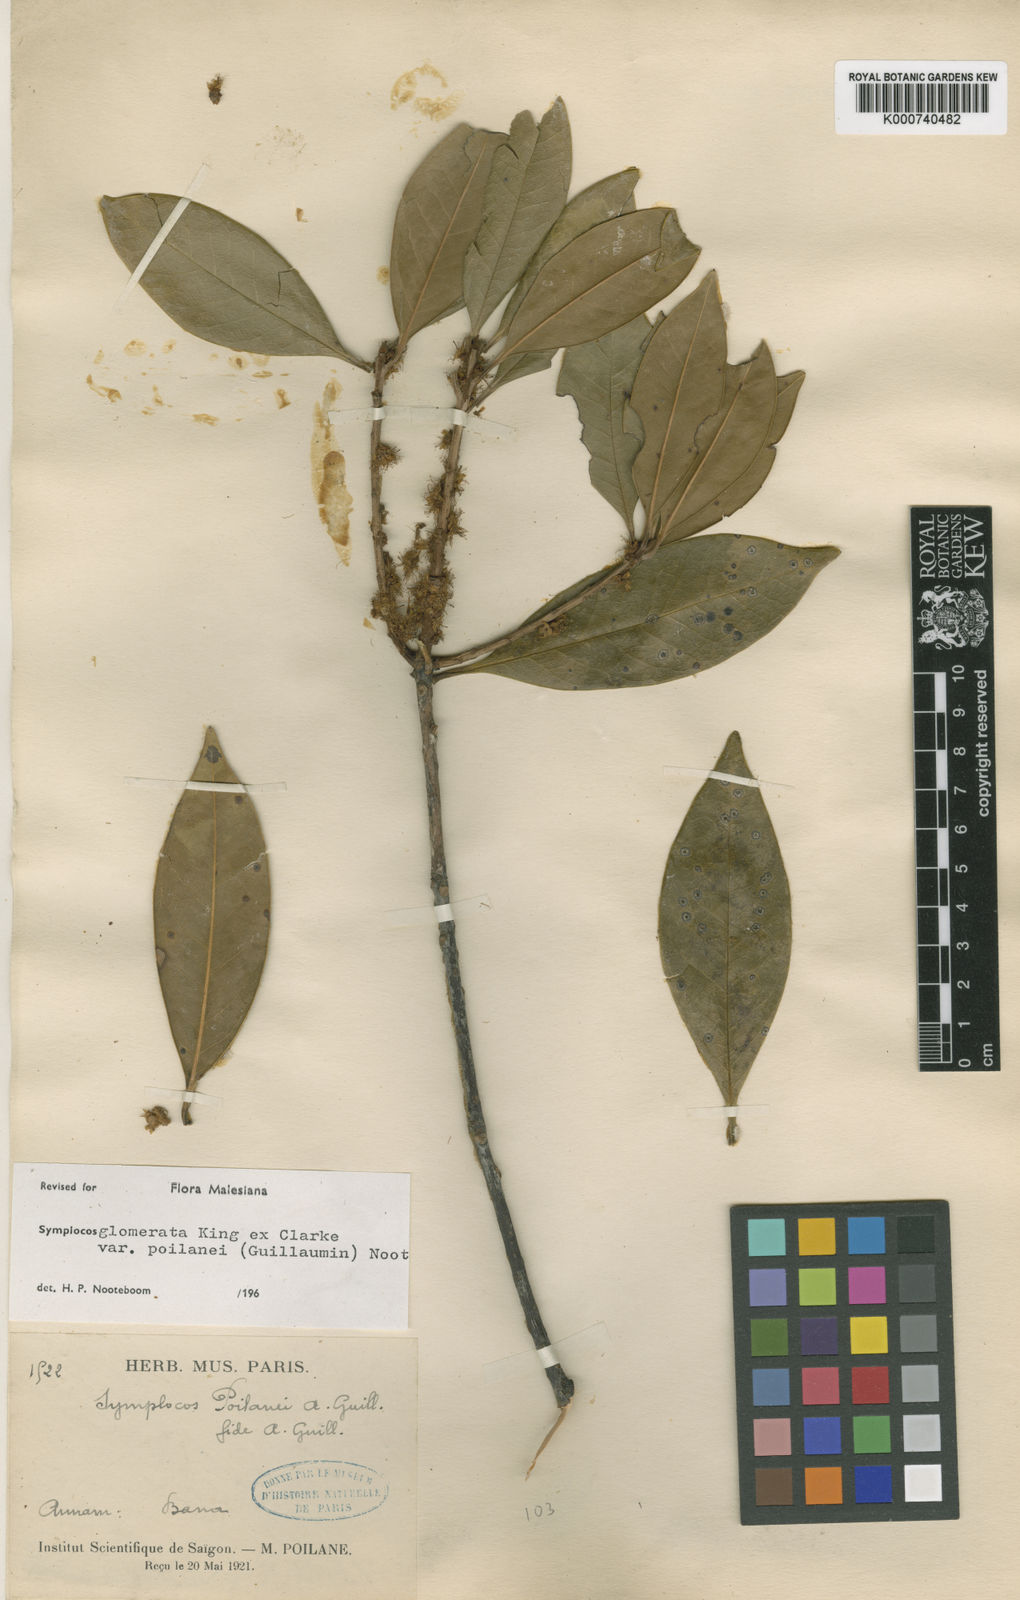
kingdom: Plantae
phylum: Tracheophyta
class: Magnoliopsida
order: Ericales
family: Symplocaceae
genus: Symplocos
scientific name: Symplocos glomerata
